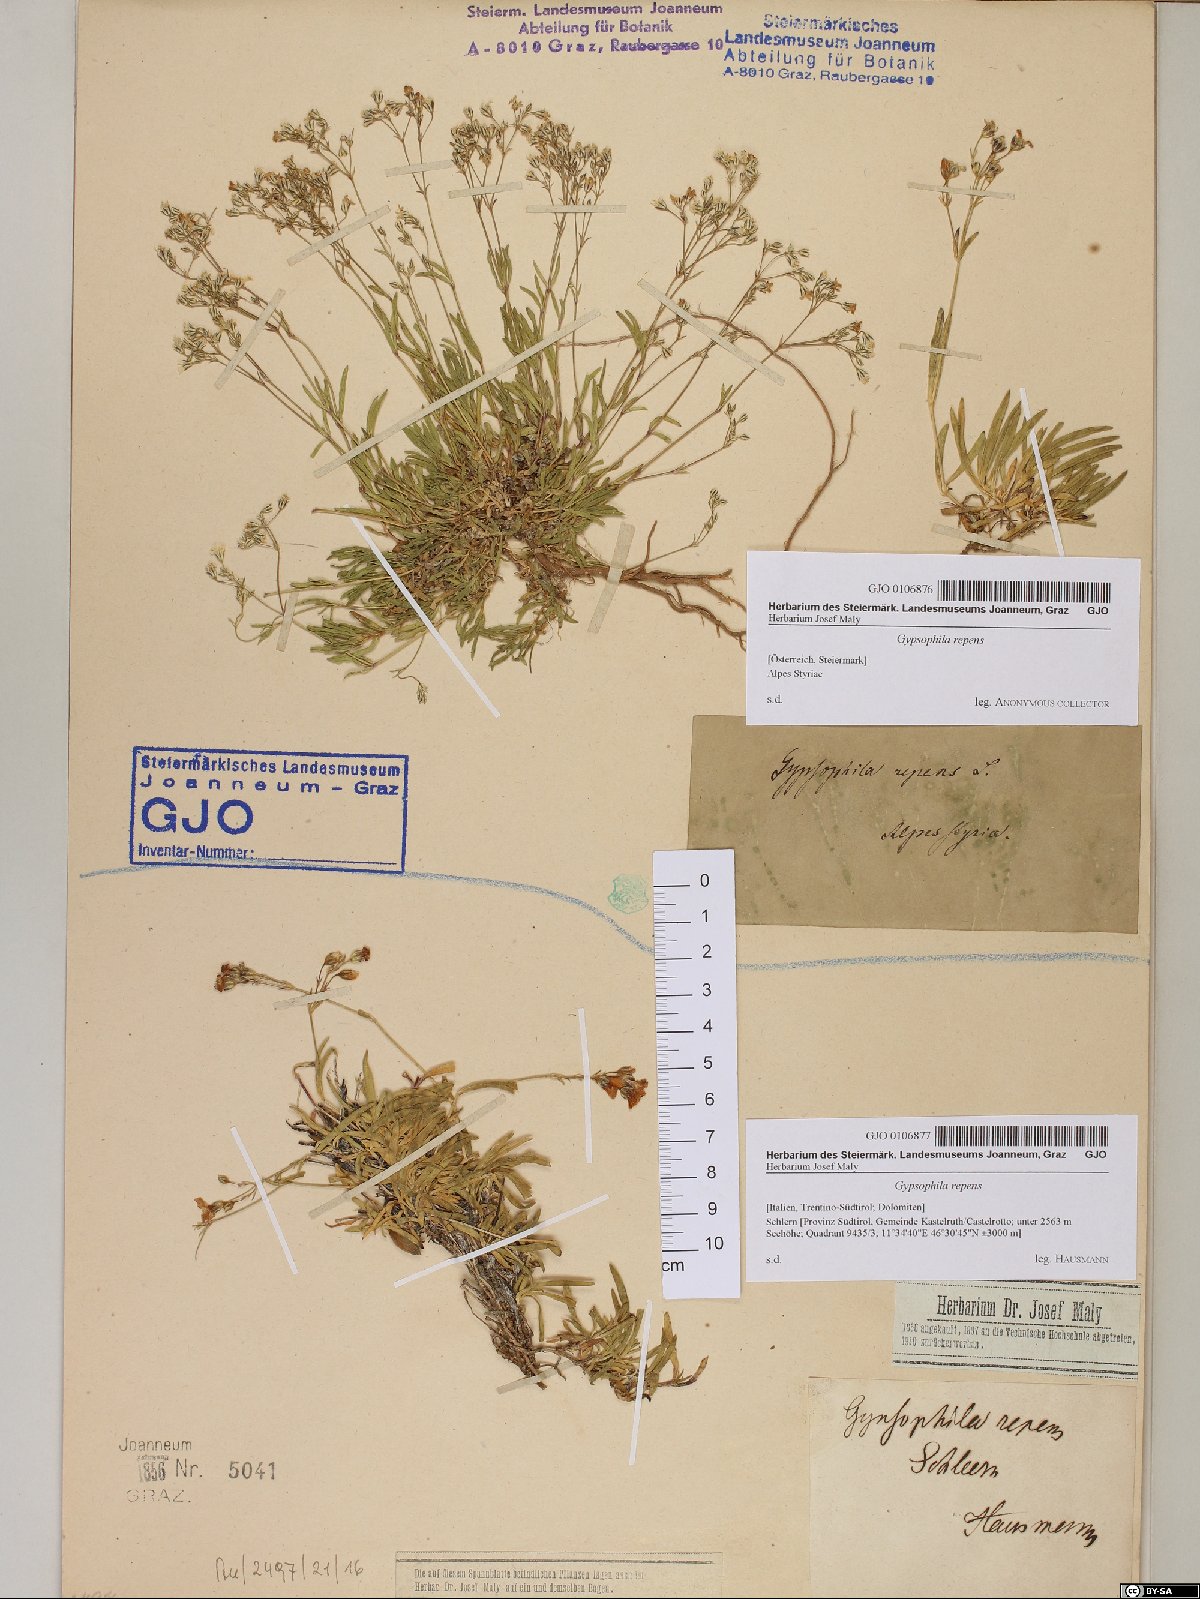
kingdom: Plantae
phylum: Tracheophyta
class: Magnoliopsida
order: Caryophyllales
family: Caryophyllaceae
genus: Gypsophila
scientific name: Gypsophila repens
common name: Creeping baby's-breath
